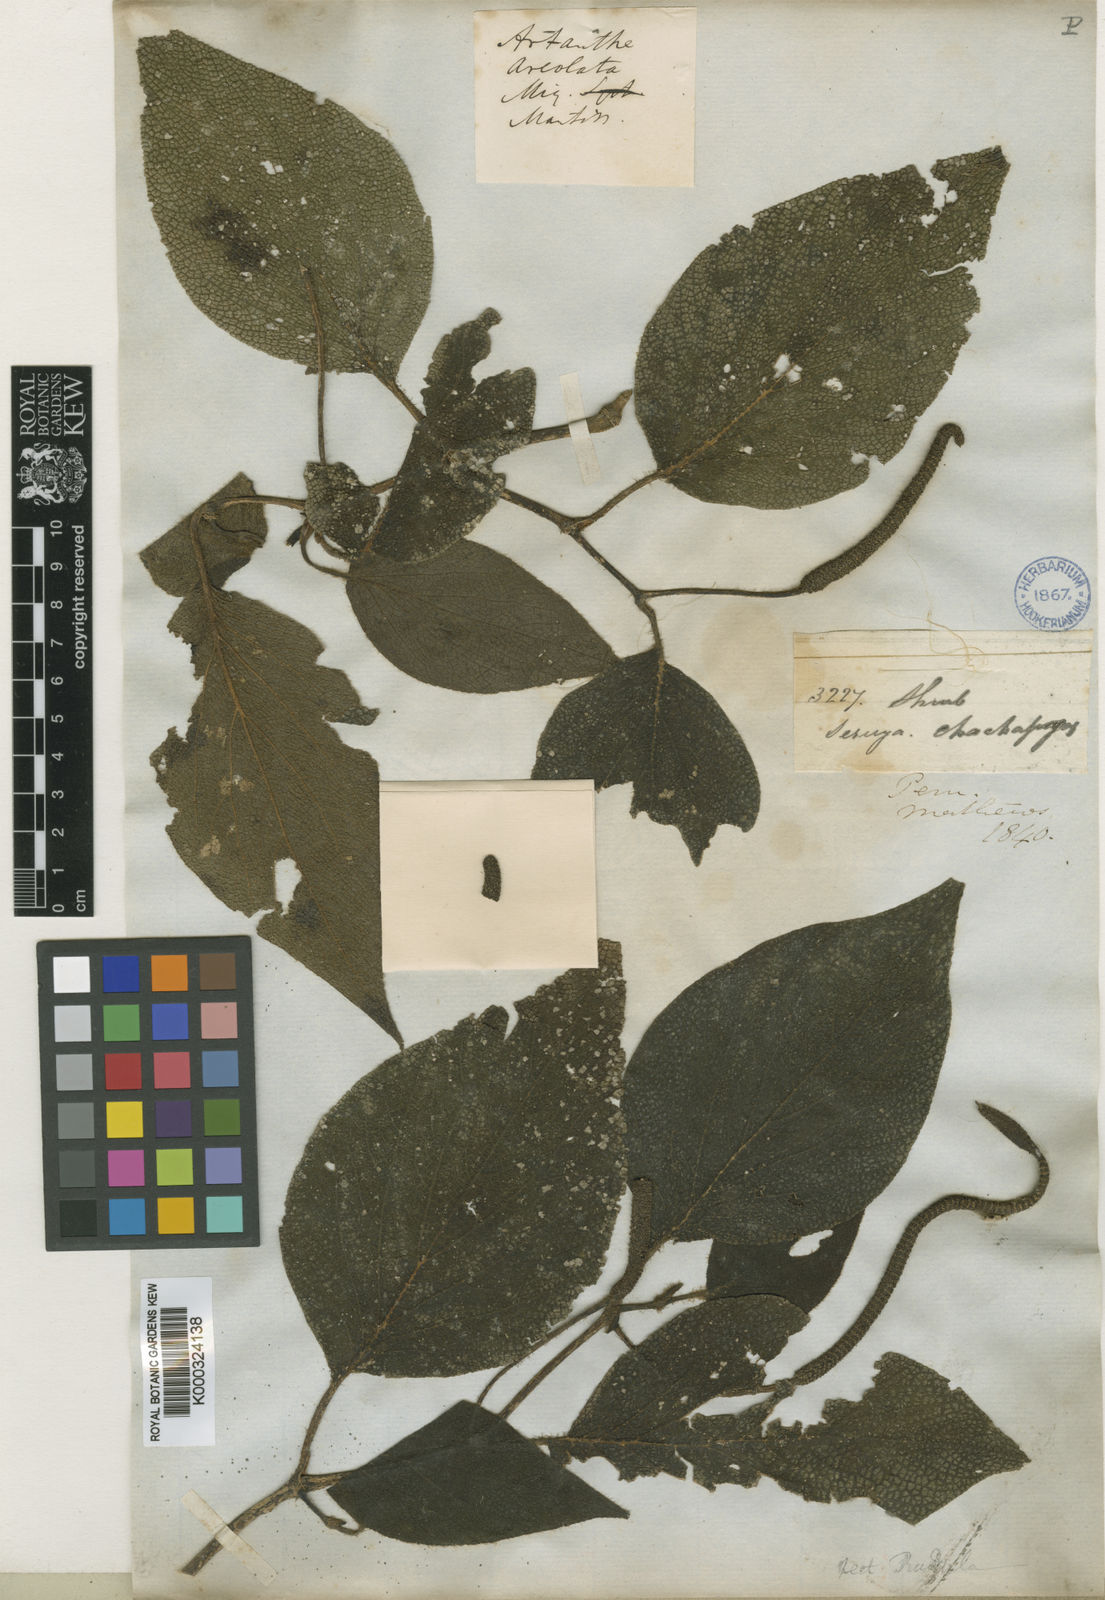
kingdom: Plantae
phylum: Tracheophyta
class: Magnoliopsida
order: Piperales
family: Piperaceae
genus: Piper
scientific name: Piper areolatum
